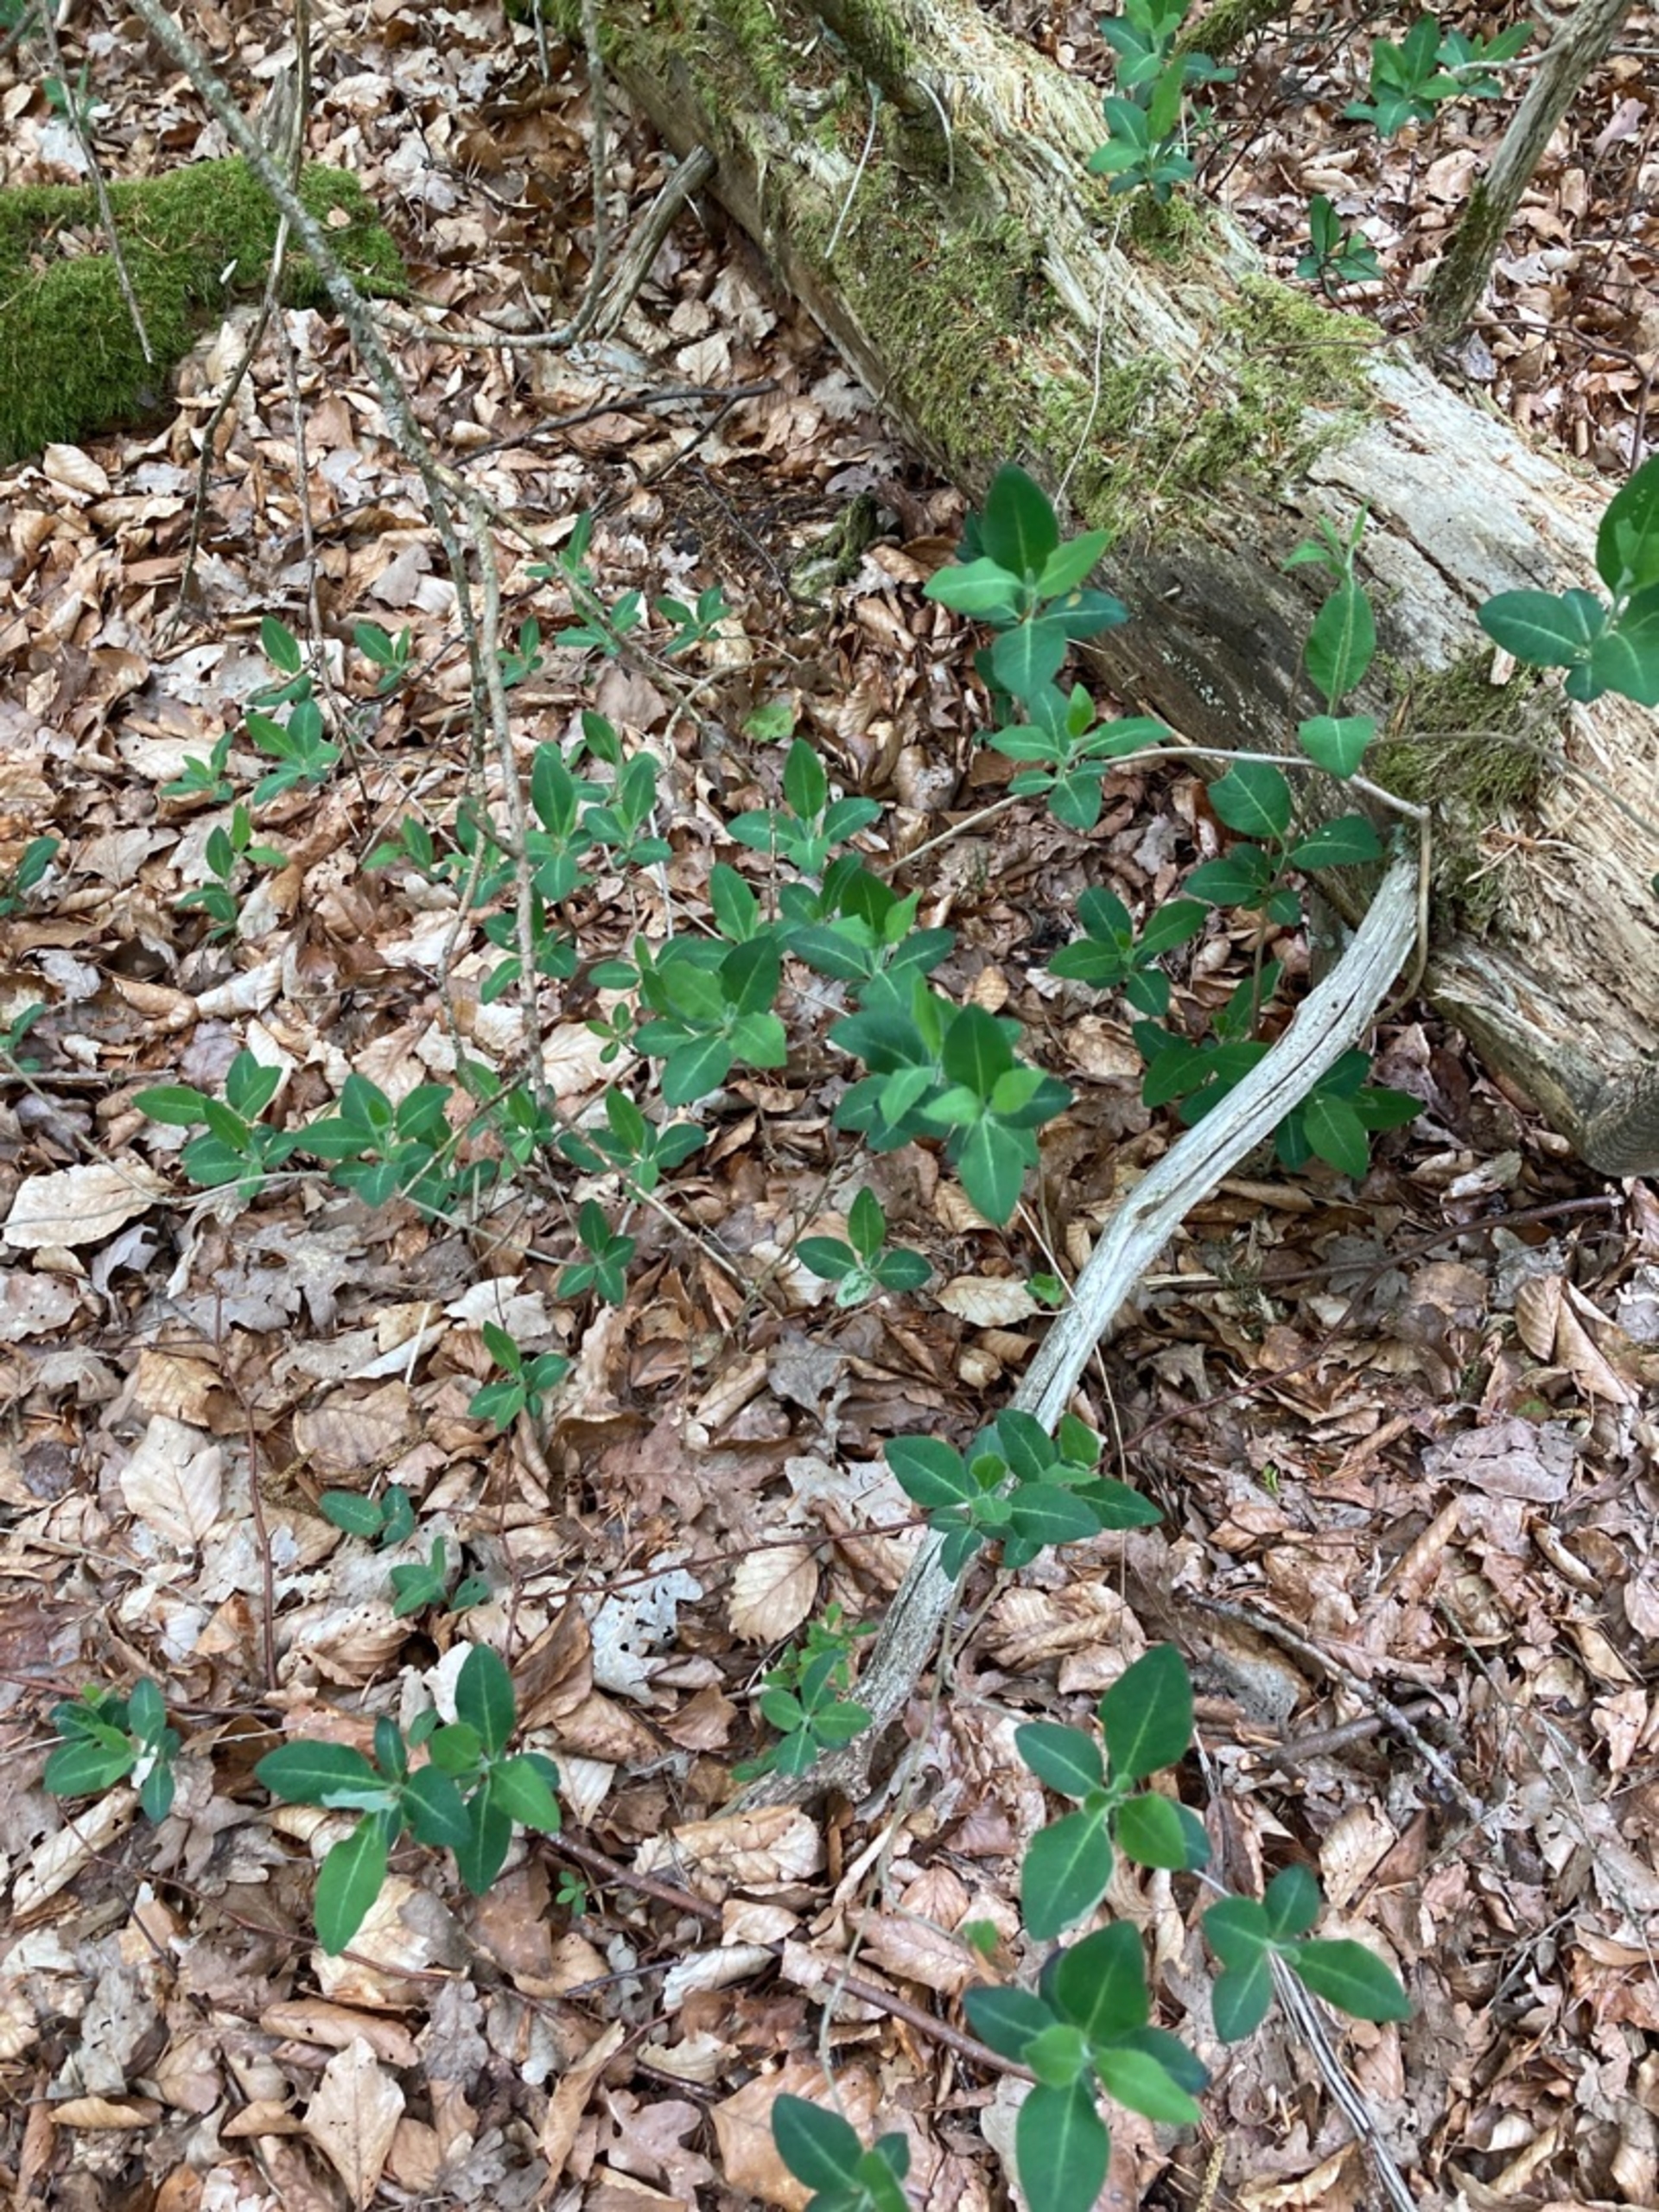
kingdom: Plantae
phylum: Tracheophyta
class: Magnoliopsida
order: Dipsacales
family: Caprifoliaceae
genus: Lonicera
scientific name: Lonicera periclymenum
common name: Almindelig gedeblad
